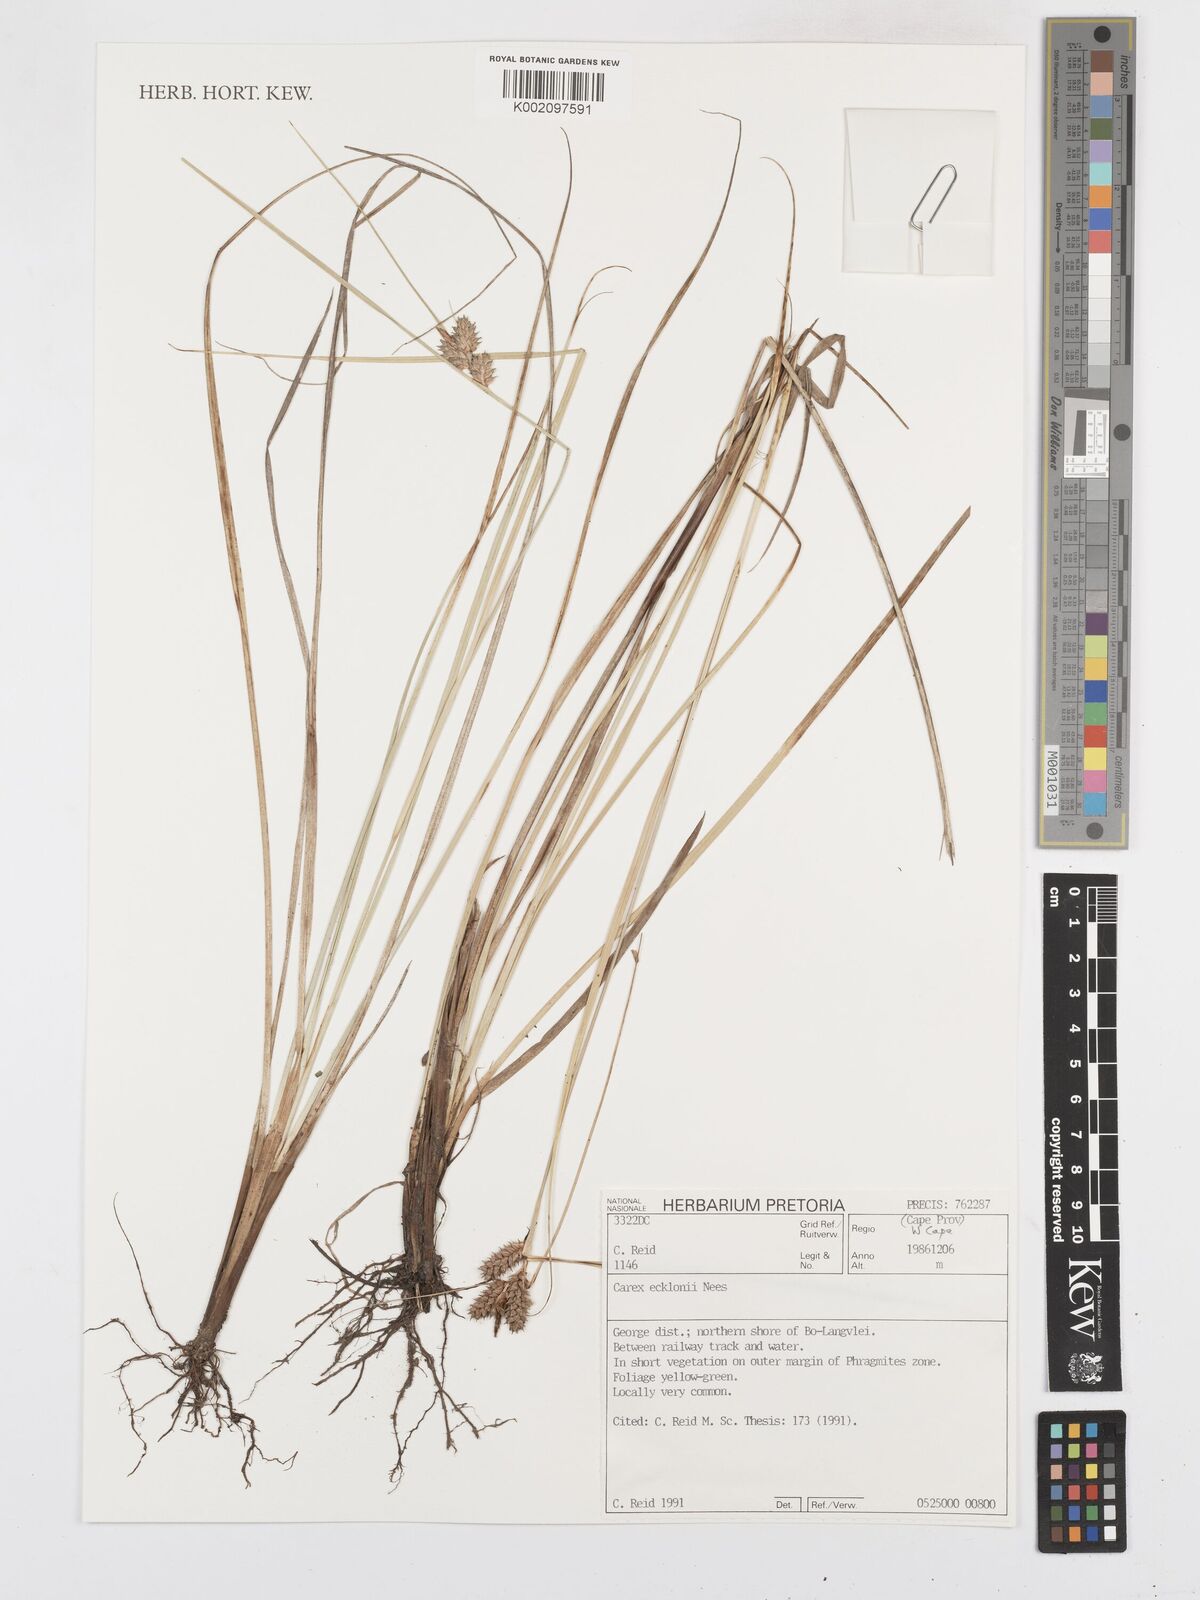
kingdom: Plantae
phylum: Tracheophyta
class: Liliopsida
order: Poales
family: Cyperaceae
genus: Carex
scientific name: Carex extensa
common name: Long-bracted sedge
